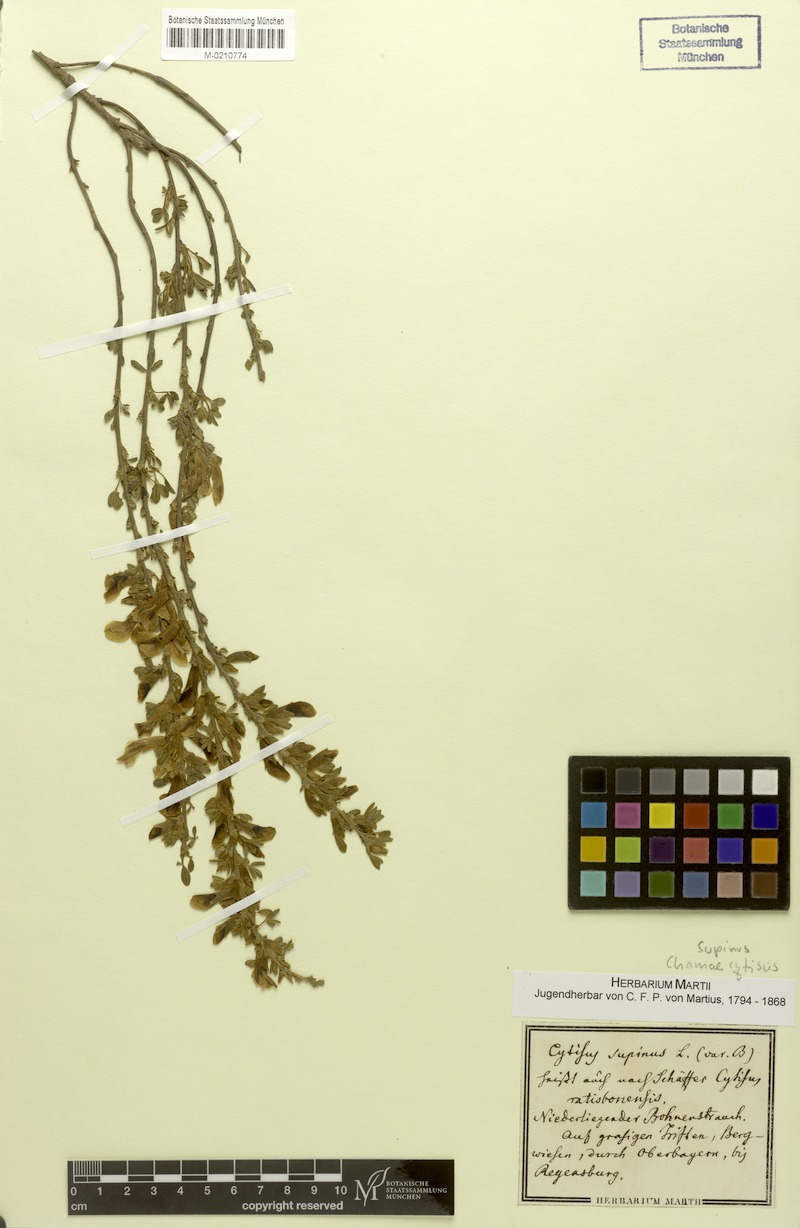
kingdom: Plantae
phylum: Tracheophyta
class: Magnoliopsida
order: Fabales
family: Fabaceae
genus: Chamaecytisus
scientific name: Chamaecytisus supinus
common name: Clustered broom
